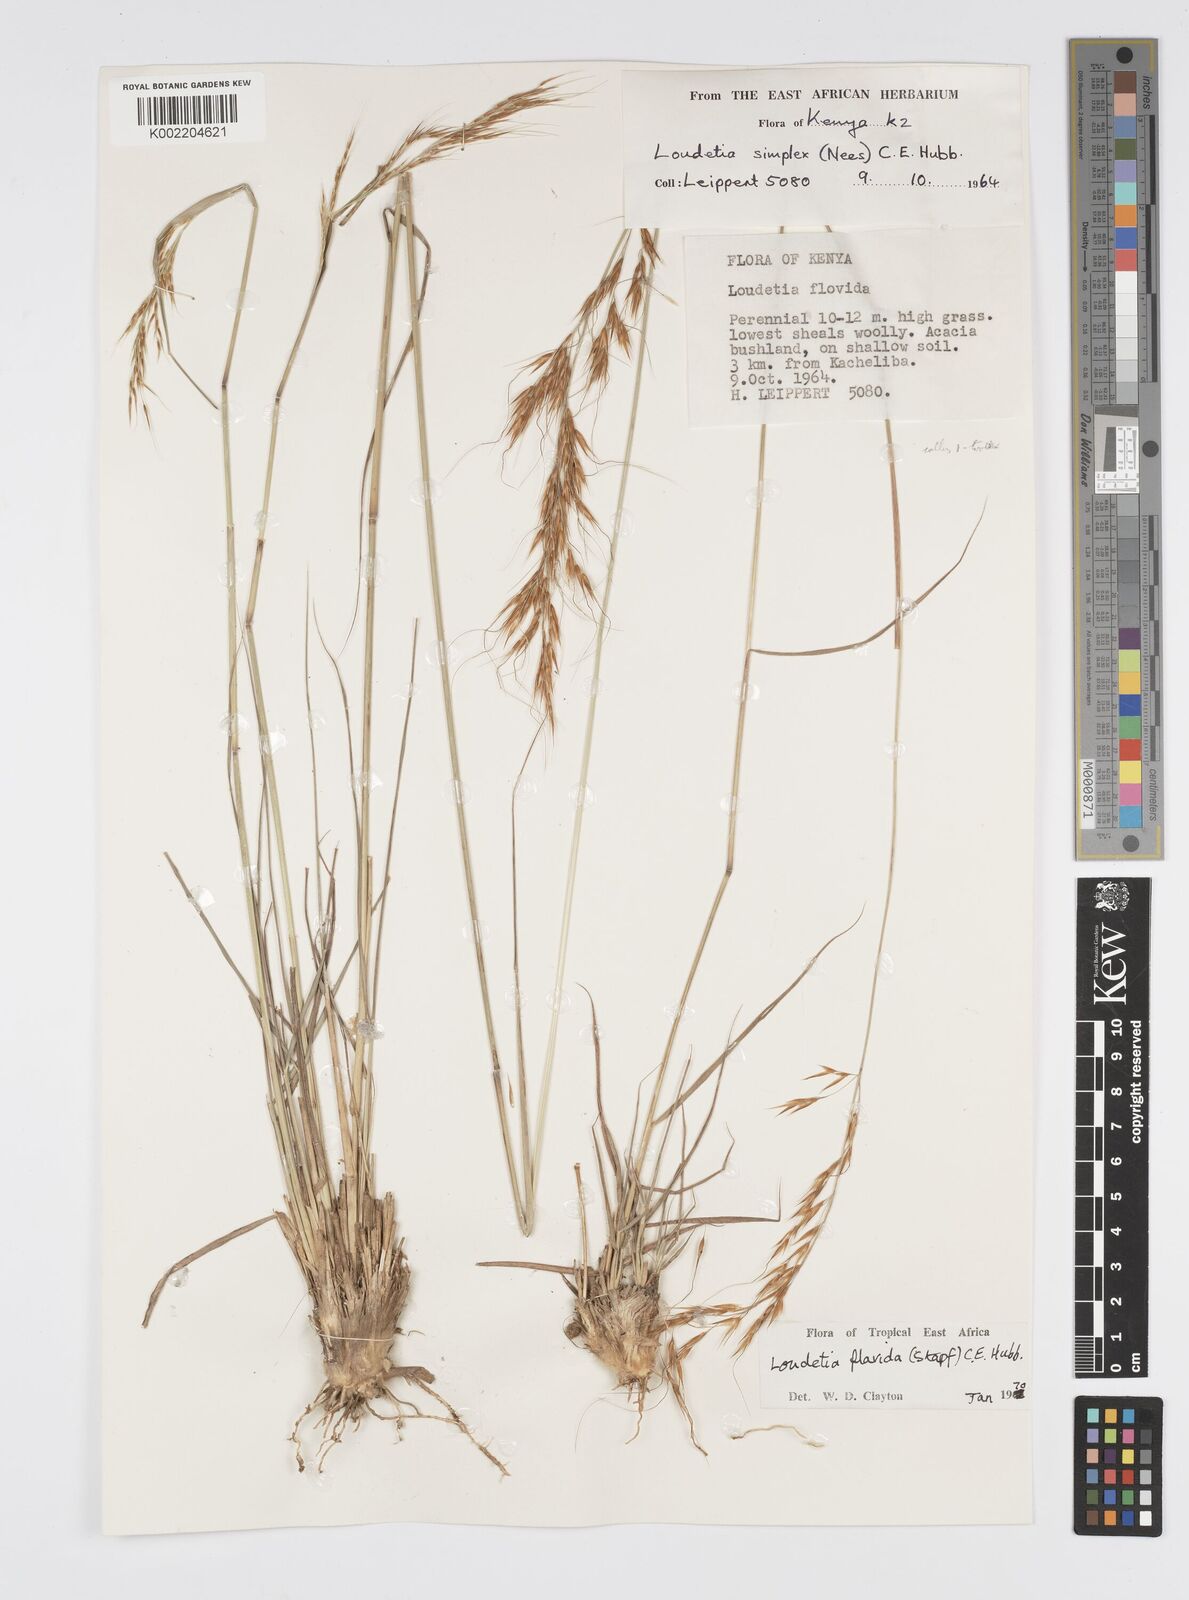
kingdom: Plantae
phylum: Tracheophyta
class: Liliopsida
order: Poales
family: Poaceae
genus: Loudetia
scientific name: Loudetia flavida
